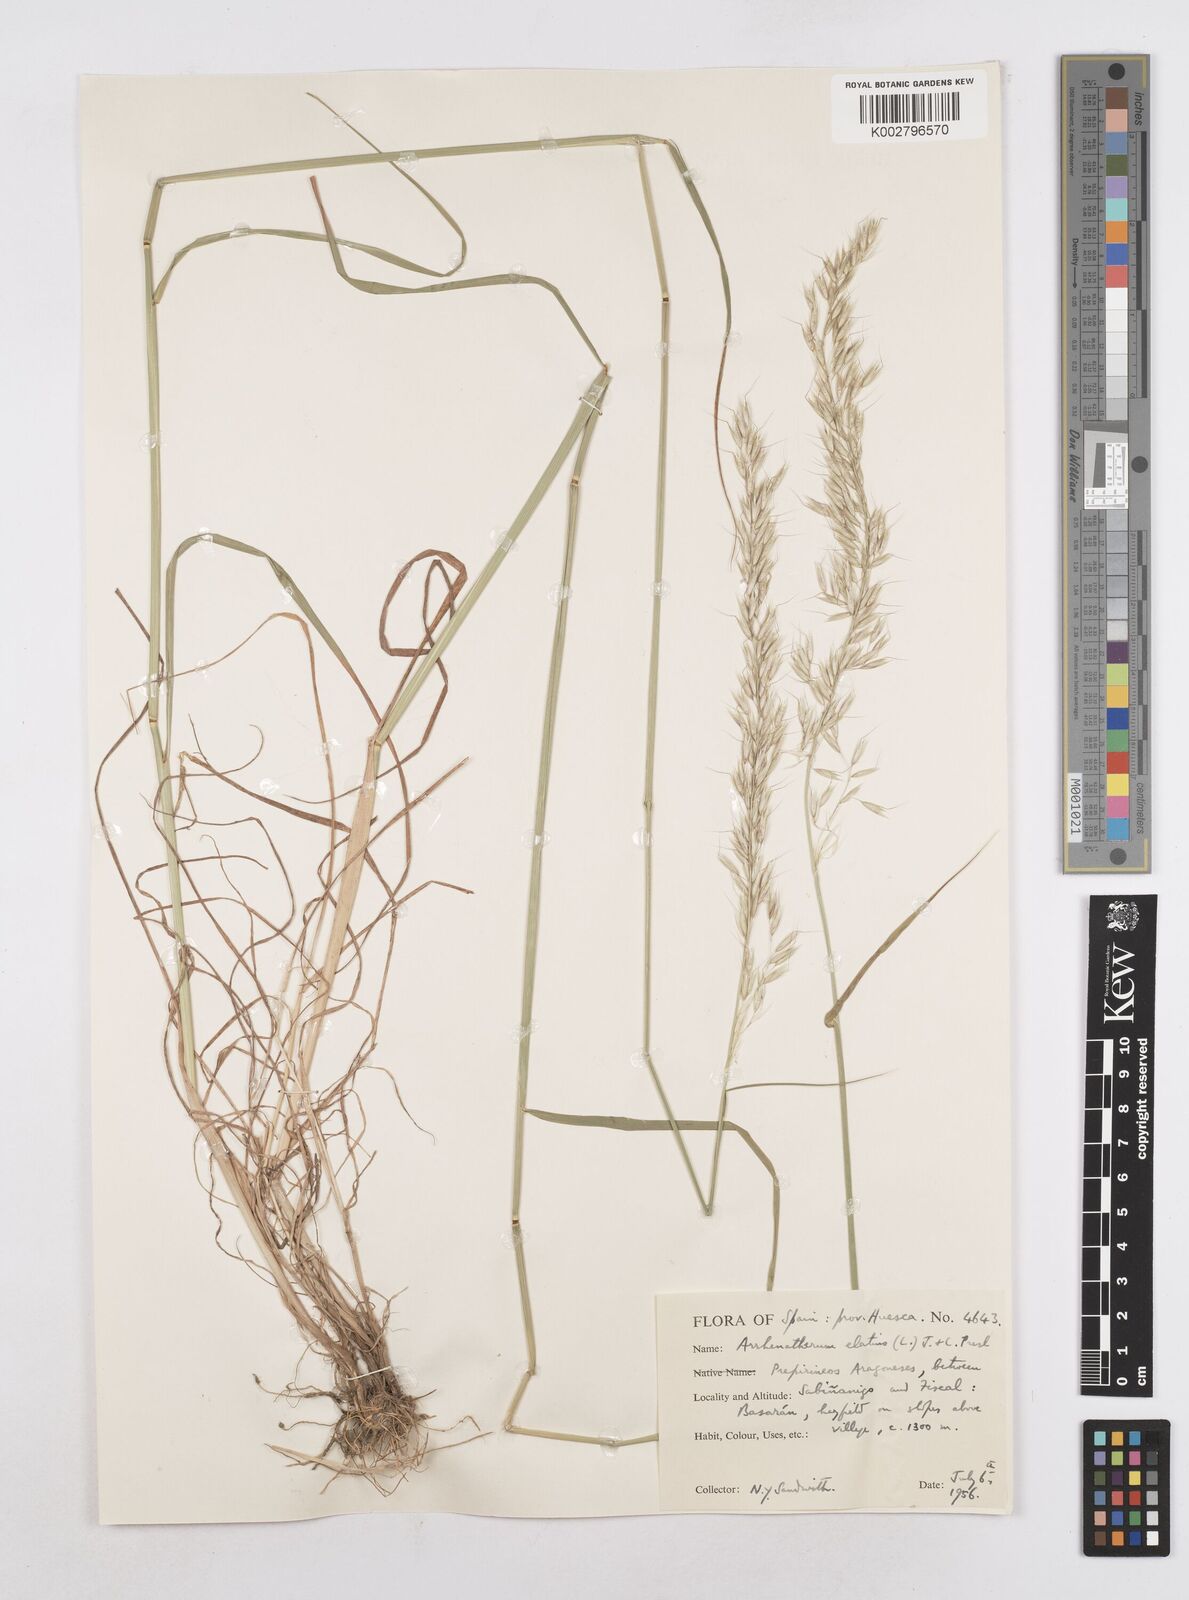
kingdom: Plantae
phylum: Tracheophyta
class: Liliopsida
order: Poales
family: Poaceae
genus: Arrhenatherum
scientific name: Arrhenatherum elatius
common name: Tall oatgrass
